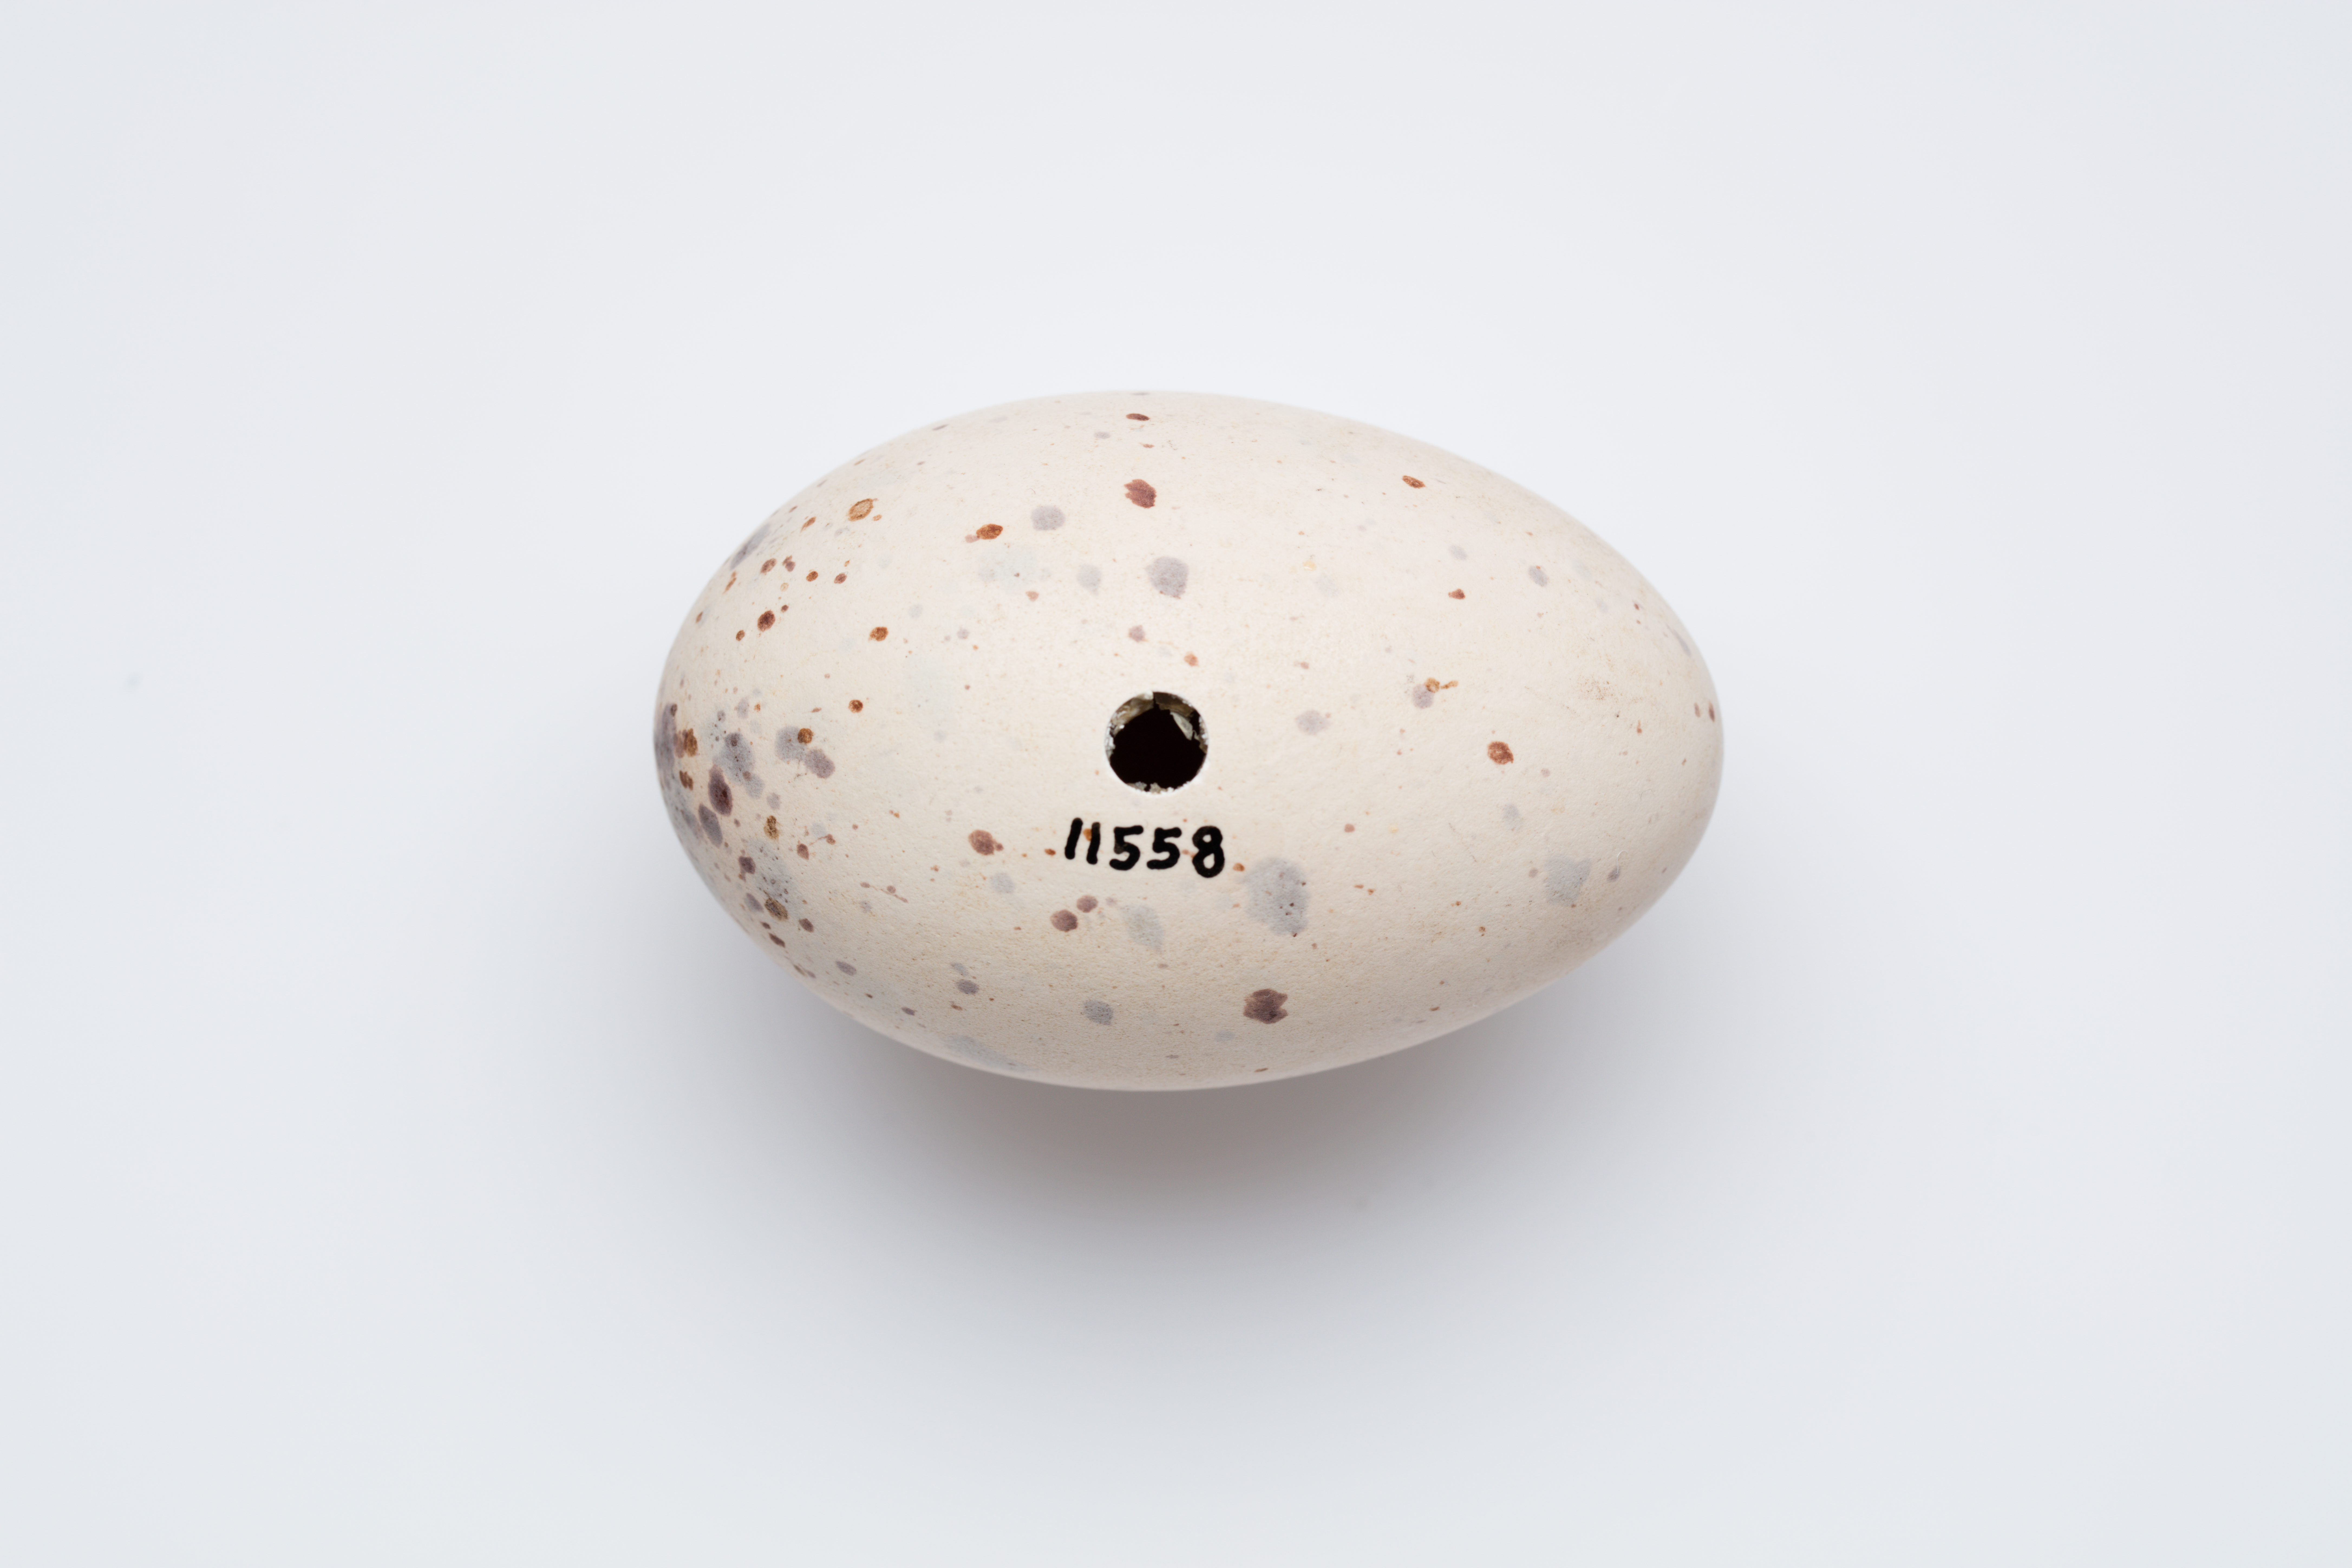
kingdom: Animalia
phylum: Chordata
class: Aves
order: Gruiformes
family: Rallidae
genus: Porphyrio
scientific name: Porphyrio hochstetteri
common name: South island takahe
